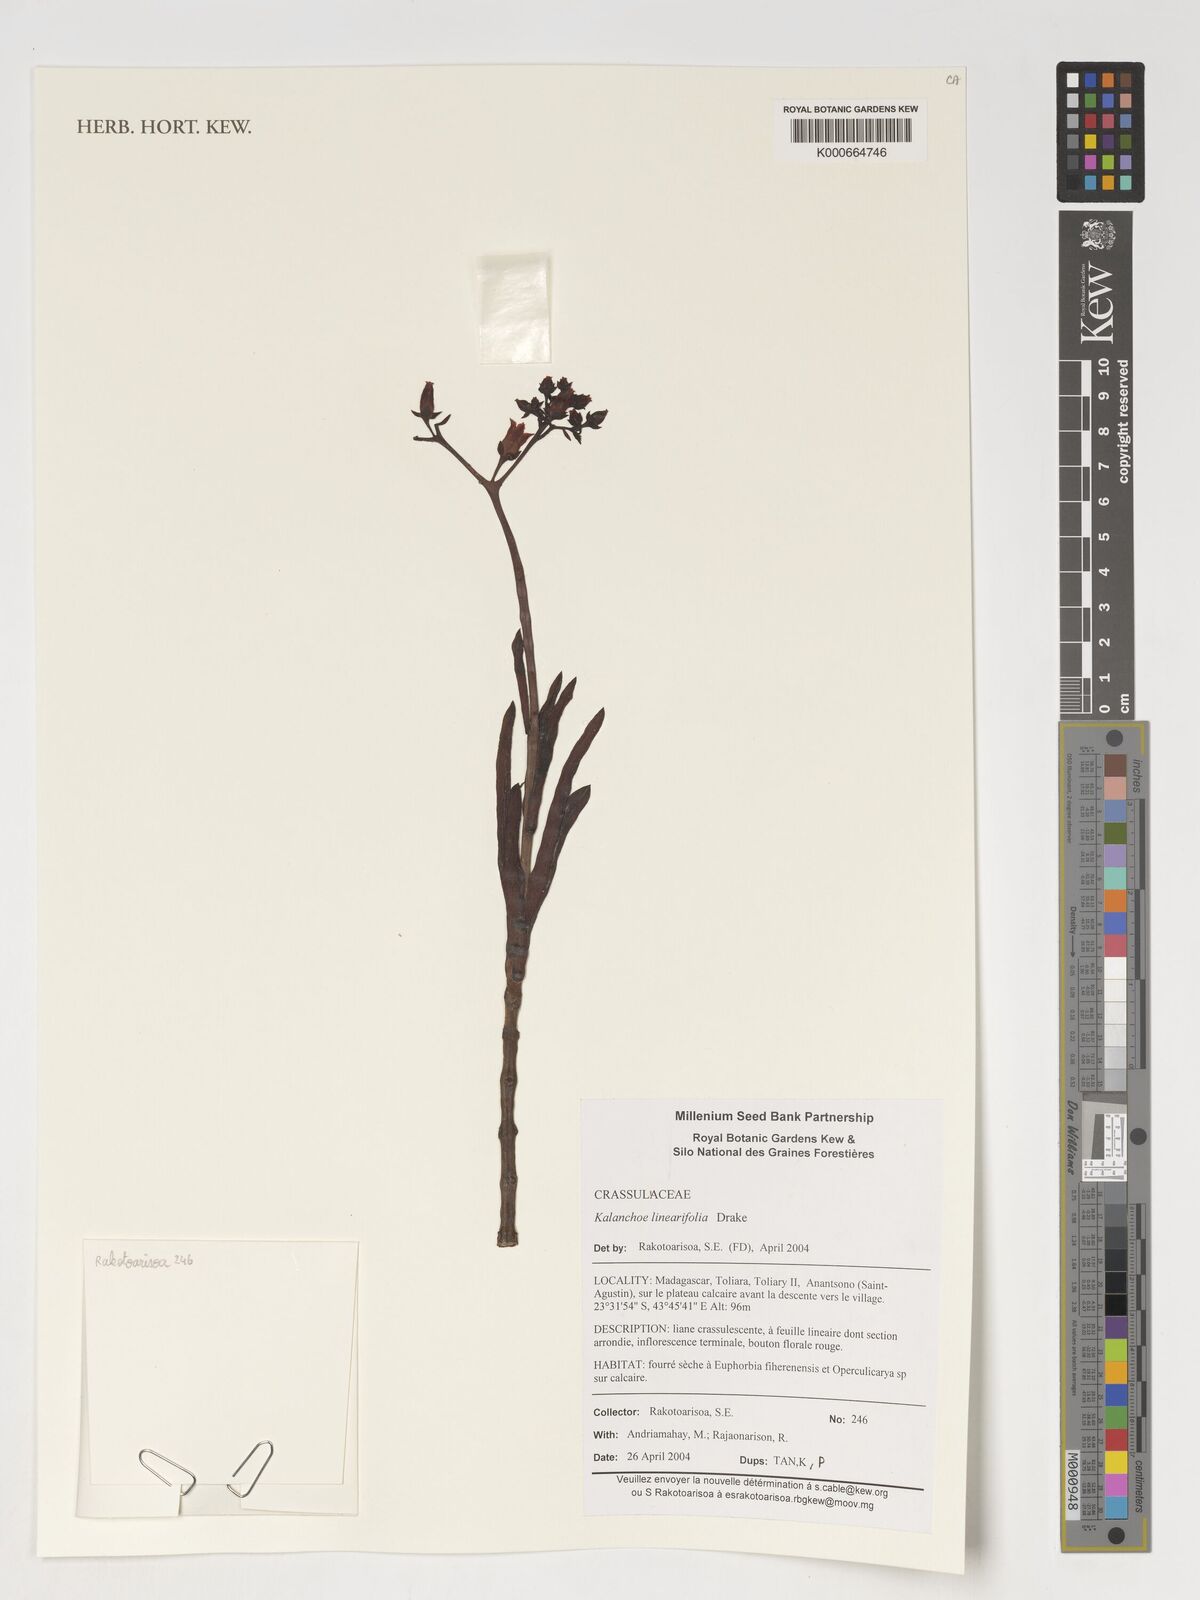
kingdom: Plantae
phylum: Tracheophyta
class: Magnoliopsida
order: Saxifragales
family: Crassulaceae
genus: Kalanchoe
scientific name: Kalanchoe linearifolia
